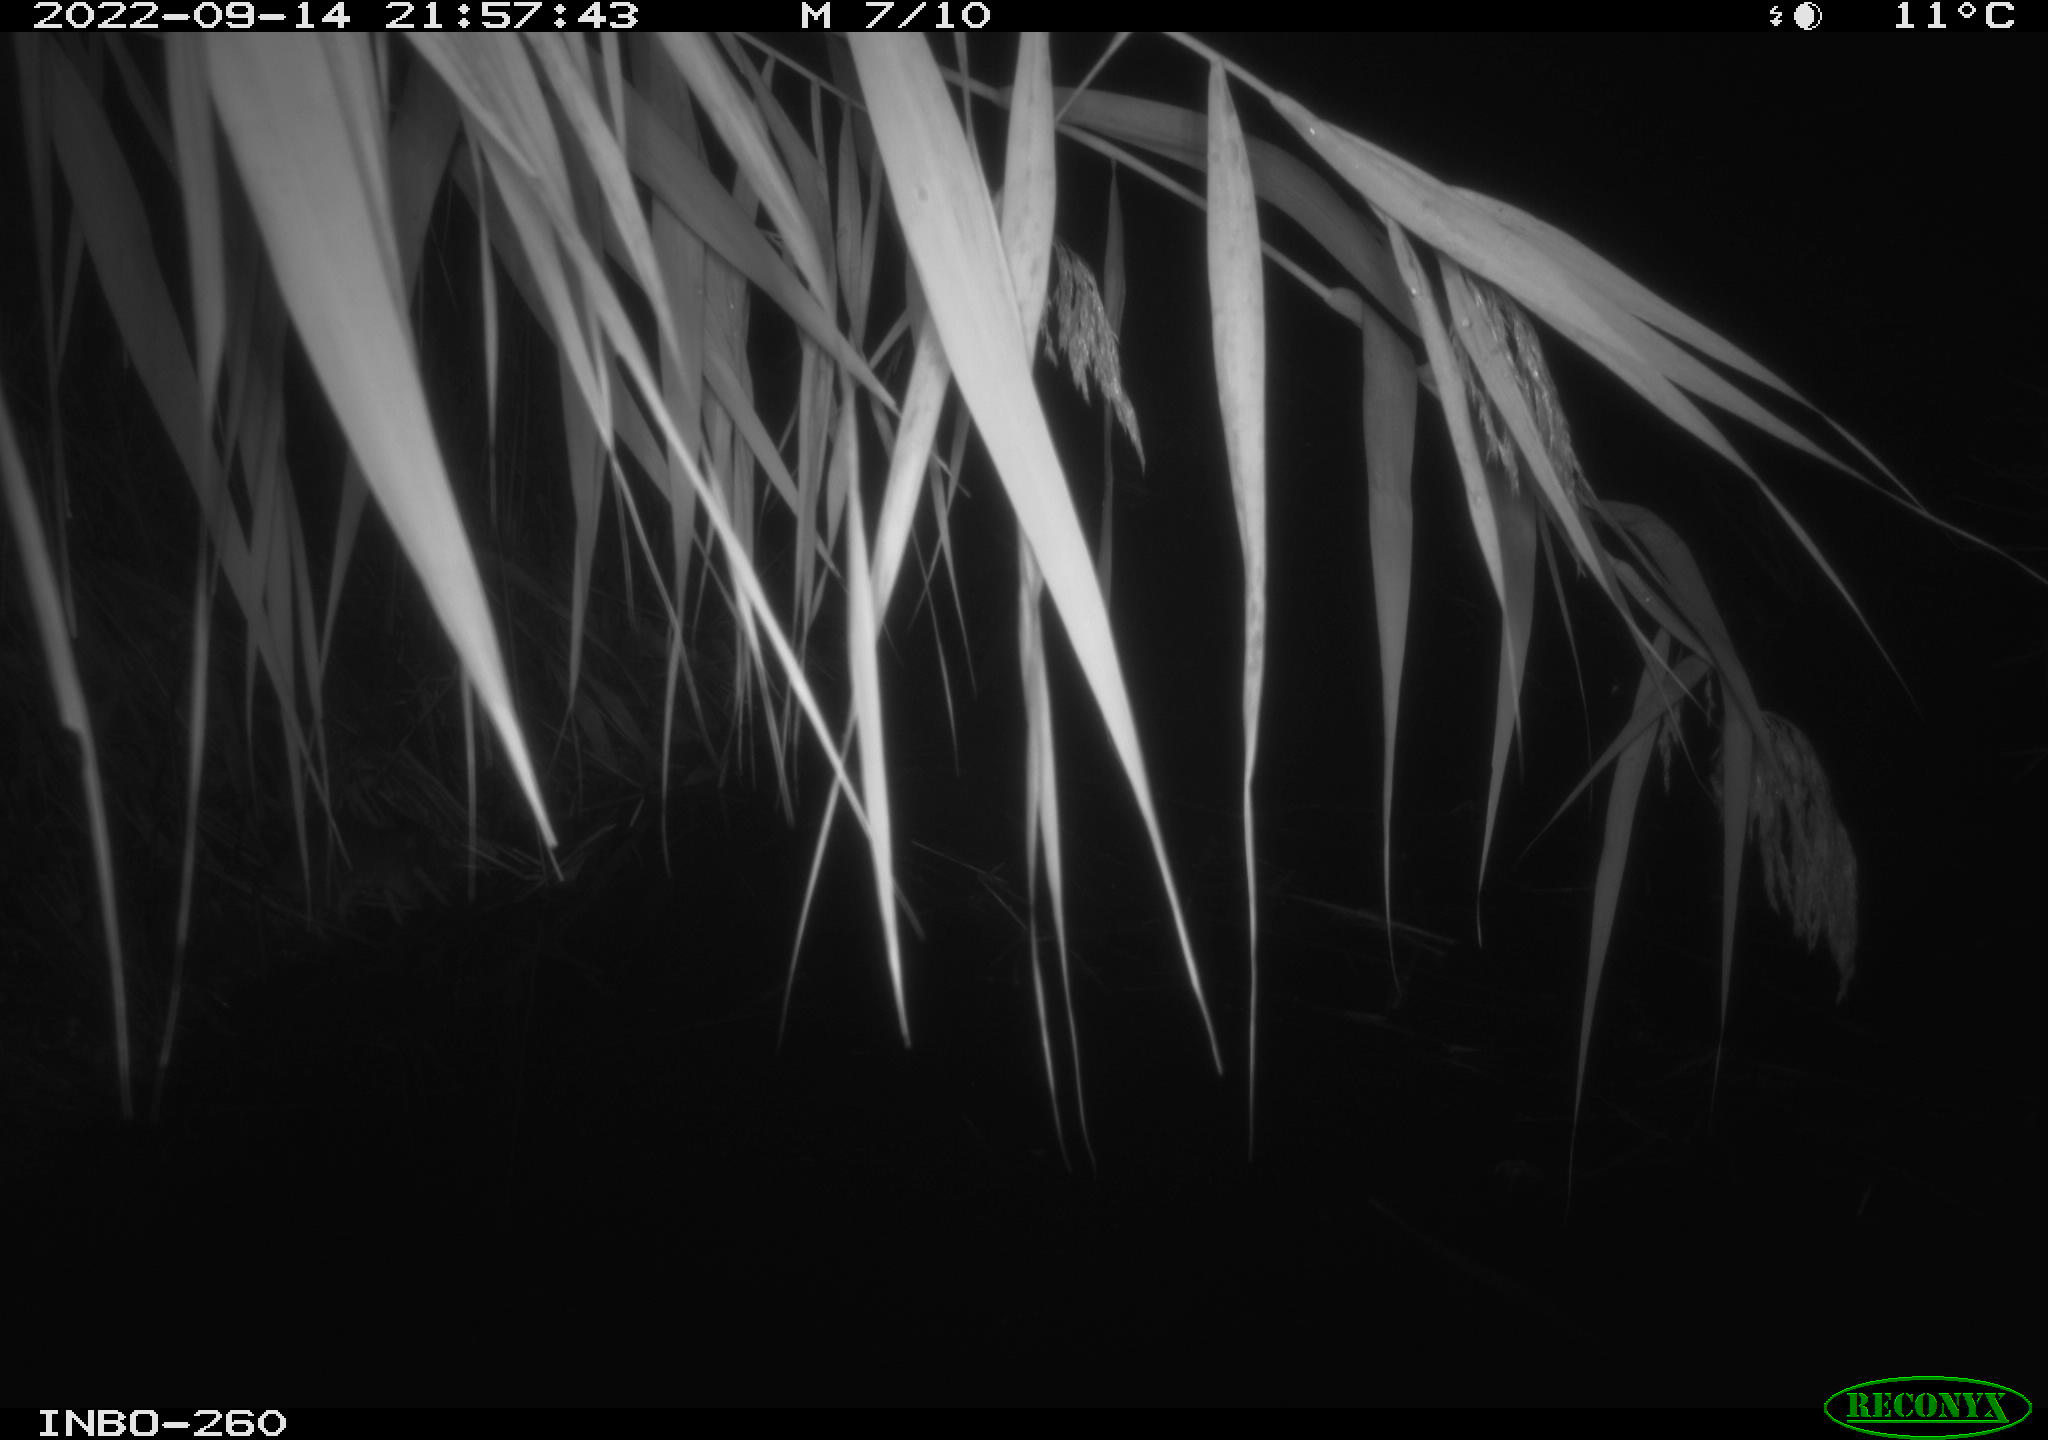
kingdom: Animalia
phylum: Chordata
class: Mammalia
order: Rodentia
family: Muridae
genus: Rattus
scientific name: Rattus norvegicus
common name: Brown rat
